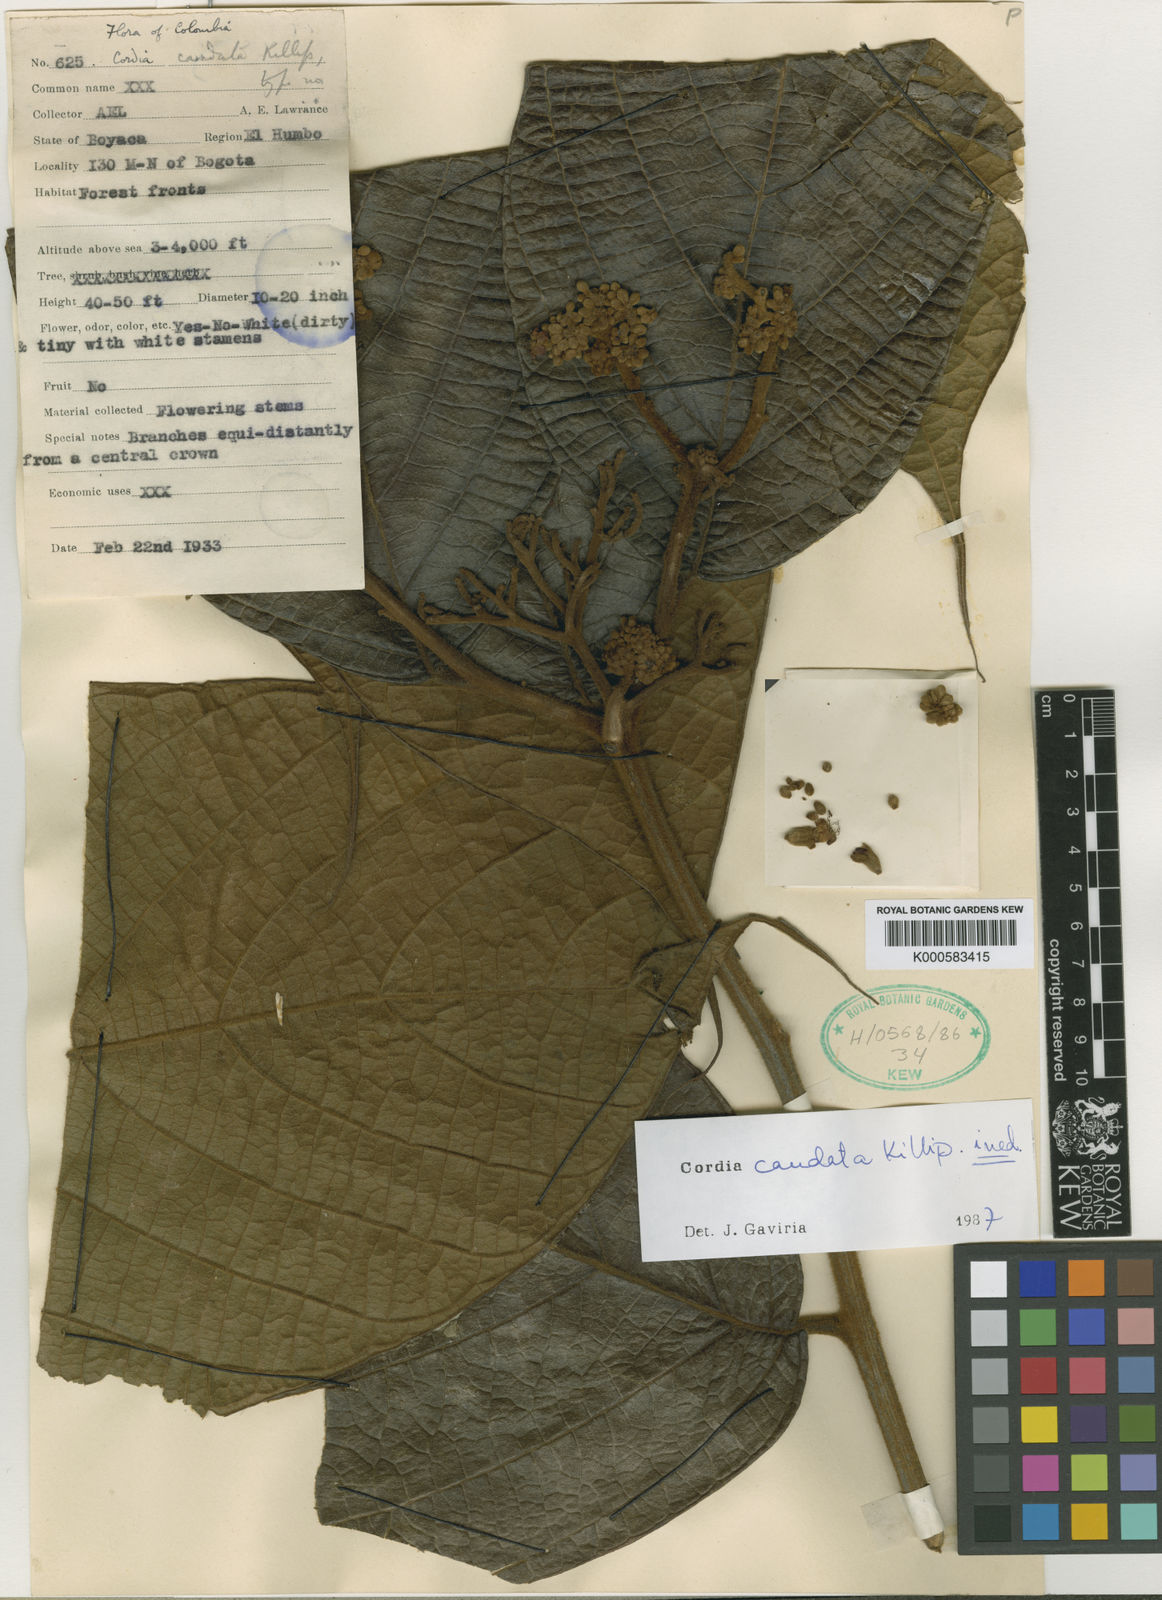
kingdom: Plantae
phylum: Tracheophyta
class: Magnoliopsida
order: Boraginales
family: Cordiaceae
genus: Cordia
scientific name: Cordia
